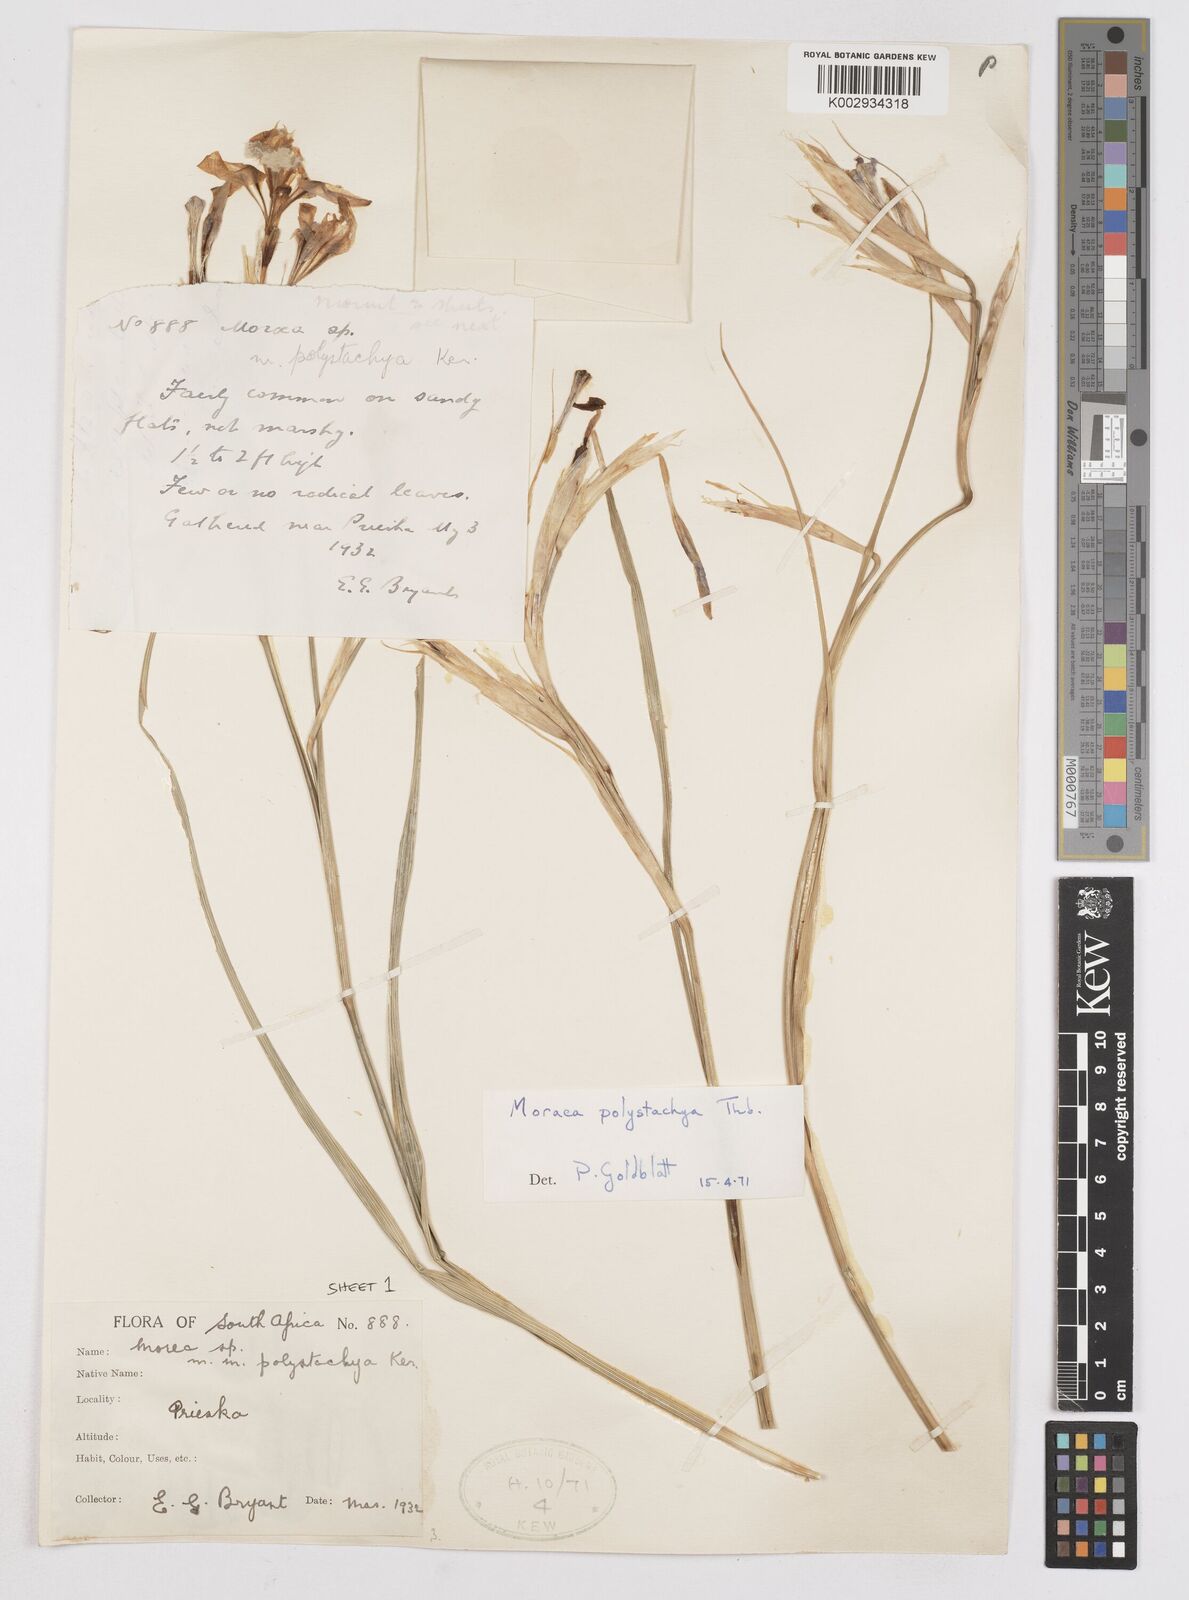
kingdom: Plantae
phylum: Tracheophyta
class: Liliopsida
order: Asparagales
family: Iridaceae
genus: Moraea
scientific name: Moraea polystachya
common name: Blue-tulip
